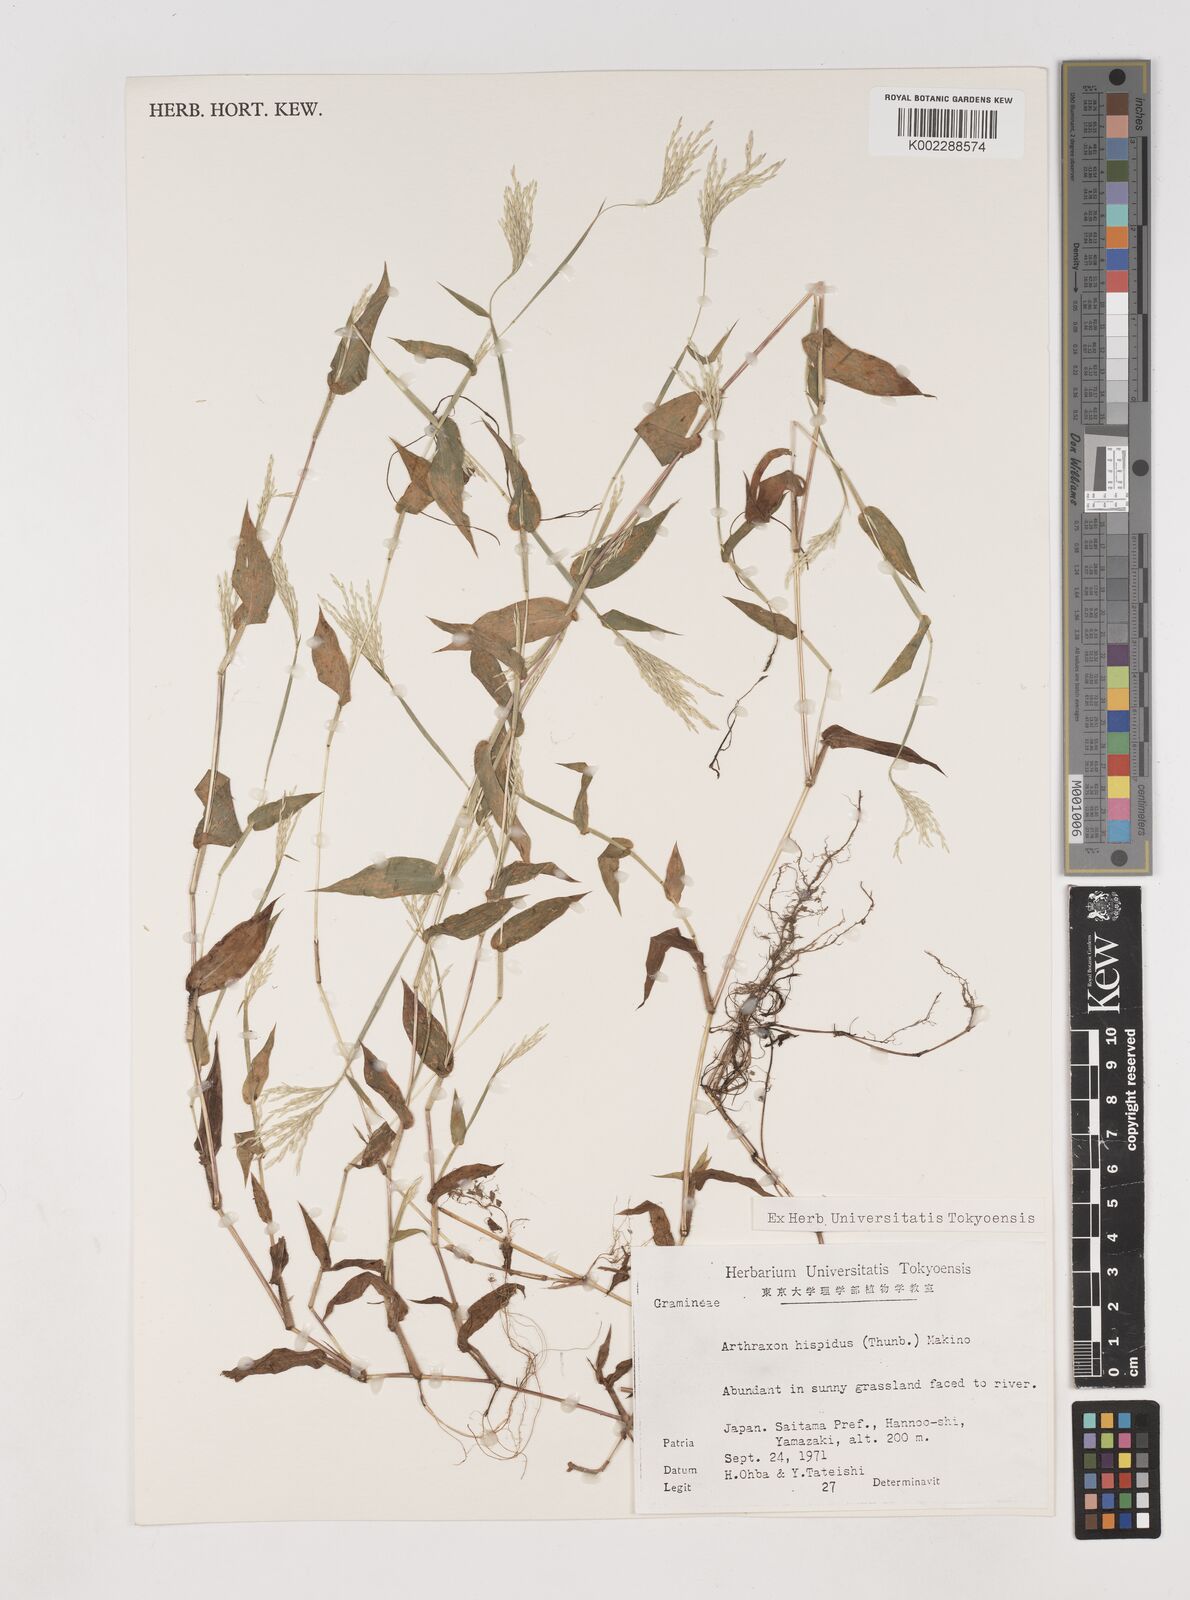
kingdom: Plantae
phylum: Tracheophyta
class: Liliopsida
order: Poales
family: Poaceae
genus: Arthraxon
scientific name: Arthraxon hispidus
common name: Small carpgrass
